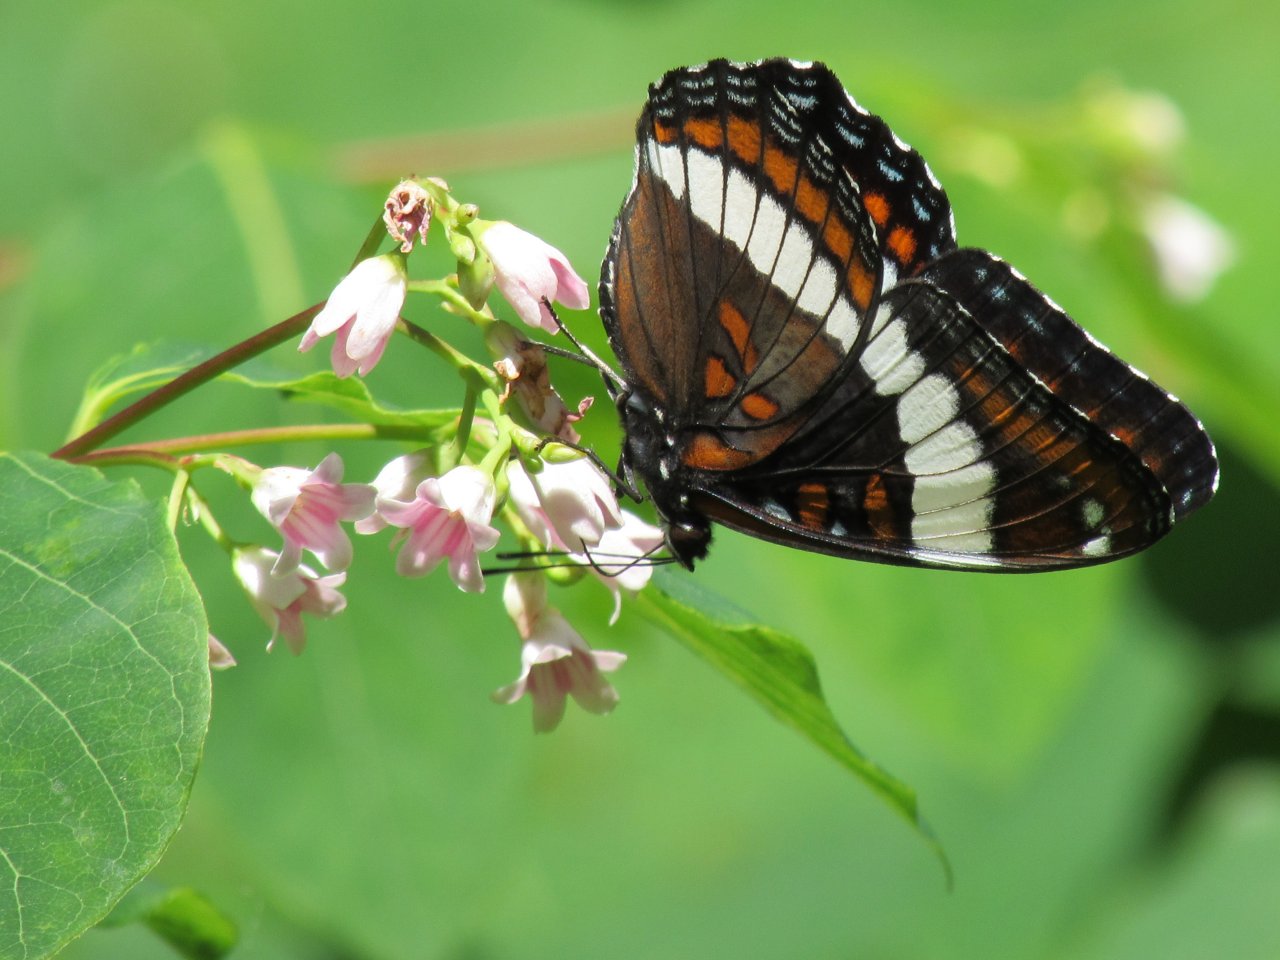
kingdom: Animalia
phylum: Arthropoda
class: Insecta
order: Lepidoptera
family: Nymphalidae
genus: Limenitis
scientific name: Limenitis arthemis
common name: Red-spotted Admiral
